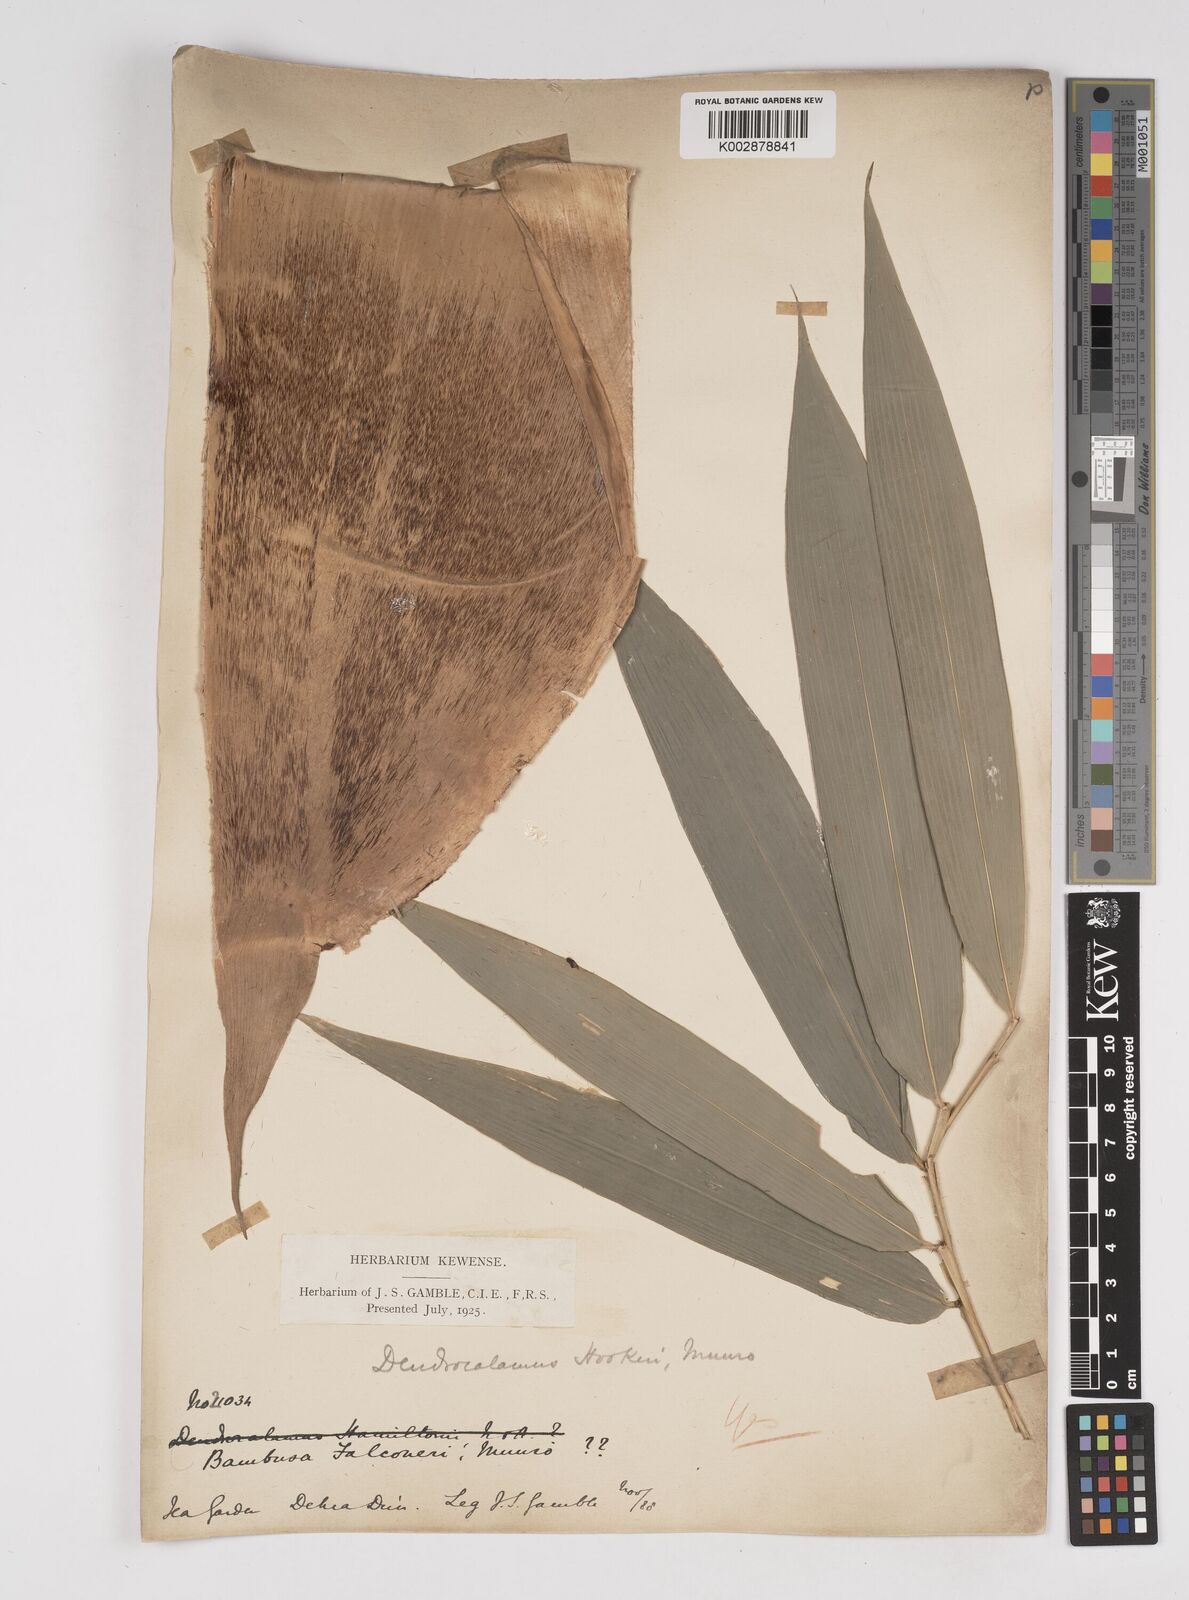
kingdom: Plantae
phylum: Tracheophyta
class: Liliopsida
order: Poales
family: Poaceae
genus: Dendrocalamus
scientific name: Dendrocalamus hookeri
